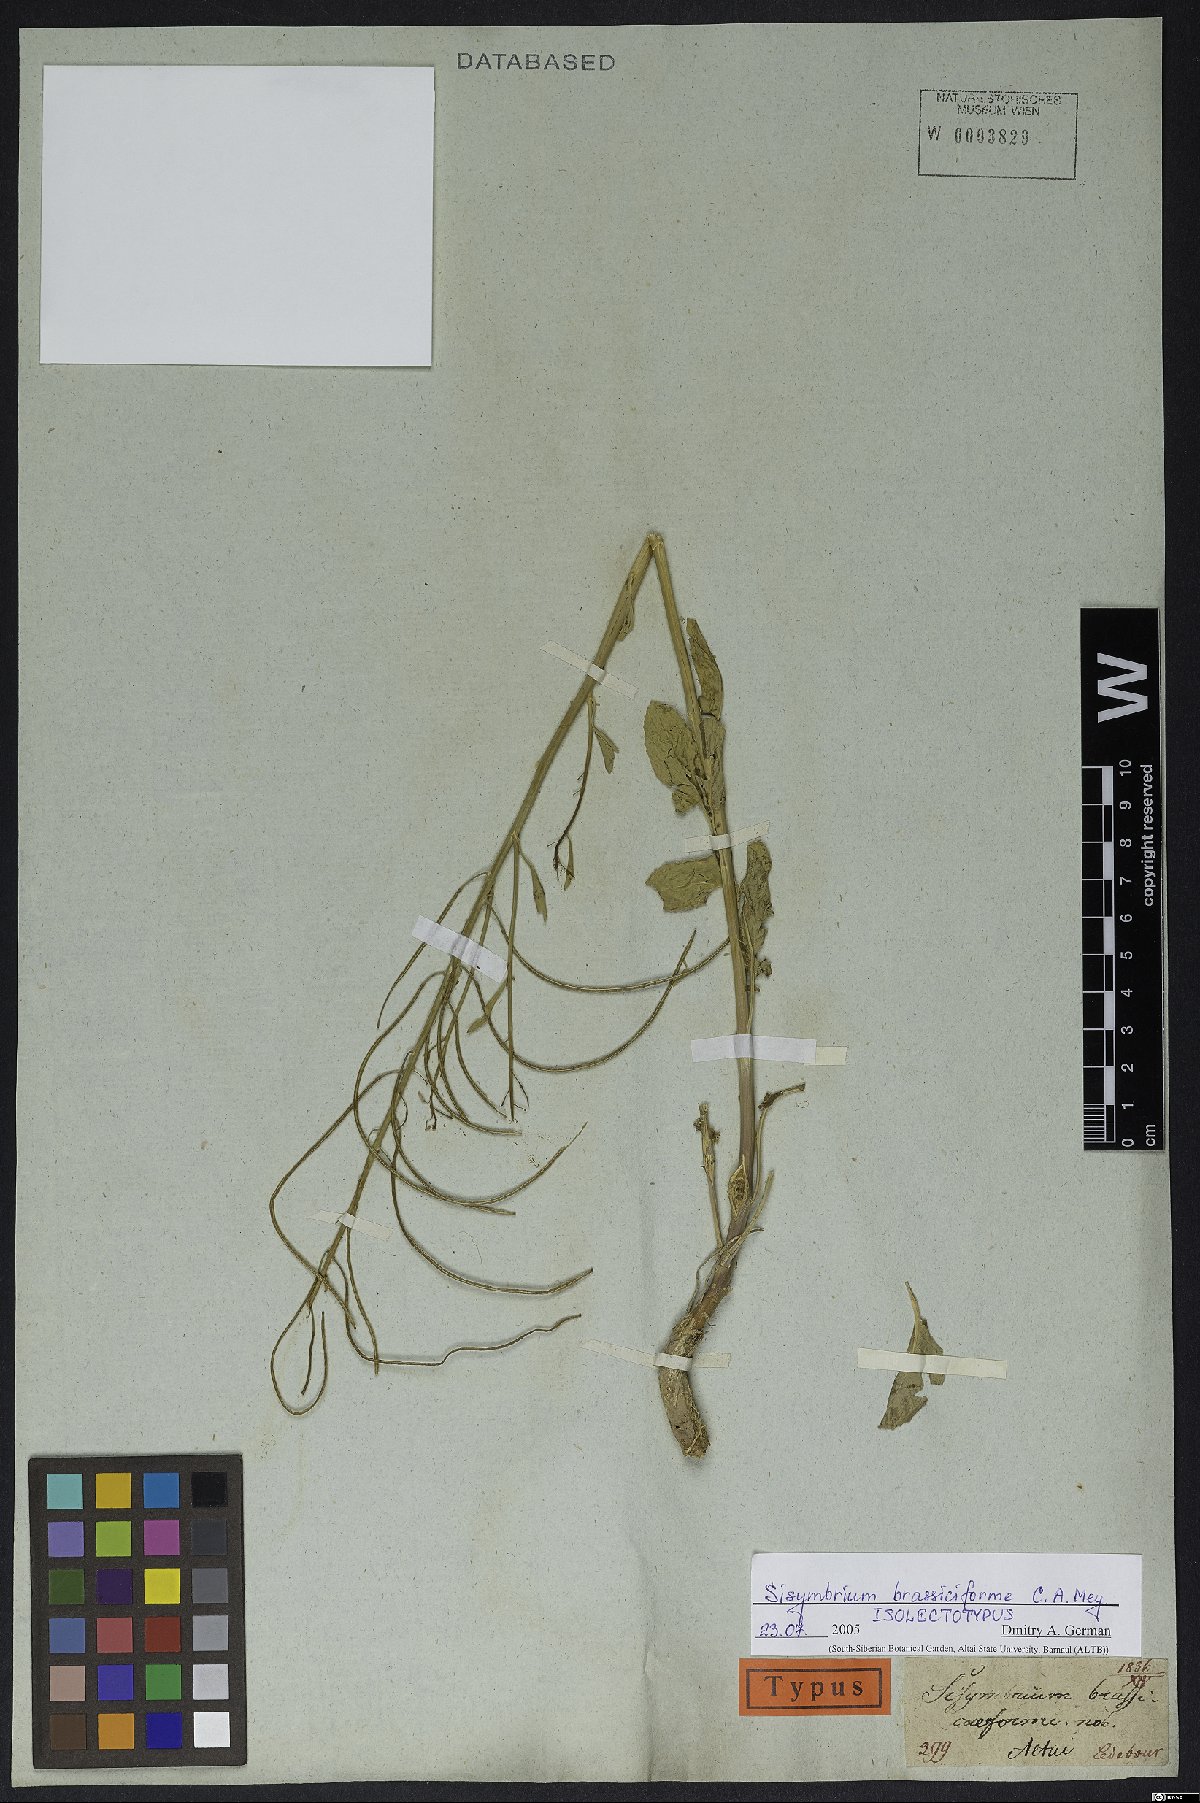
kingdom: Plantae
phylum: Tracheophyta
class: Magnoliopsida
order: Brassicales
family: Brassicaceae
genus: Sisymbrium
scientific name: Sisymbrium brassiciforme
